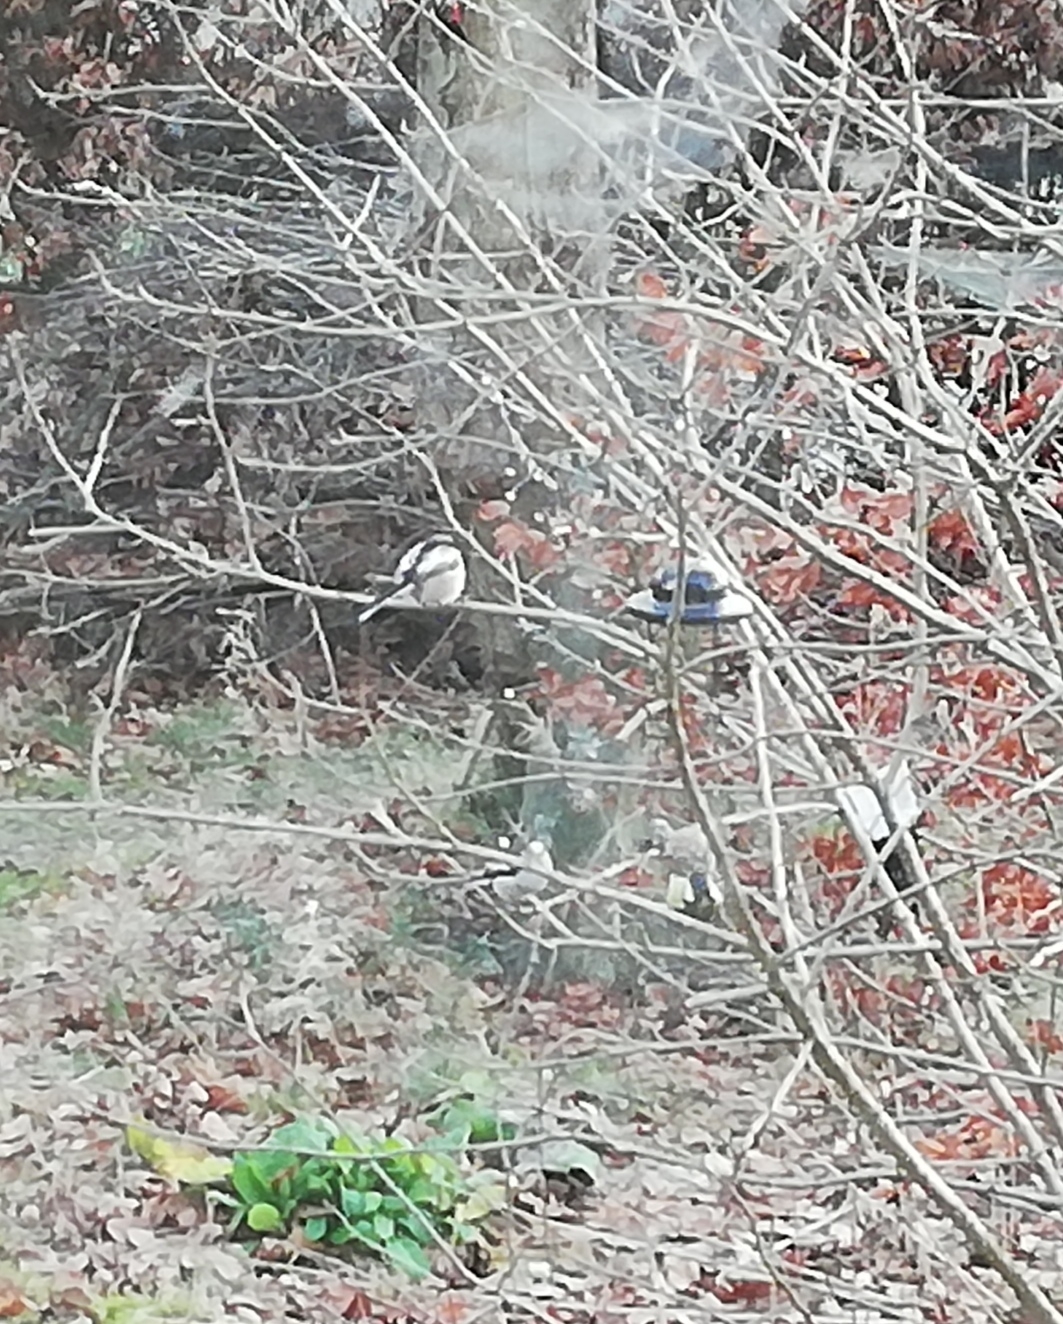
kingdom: Animalia
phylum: Chordata
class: Aves
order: Passeriformes
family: Aegithalidae
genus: Aegithalos
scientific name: Aegithalos caudatus
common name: Halemejse
